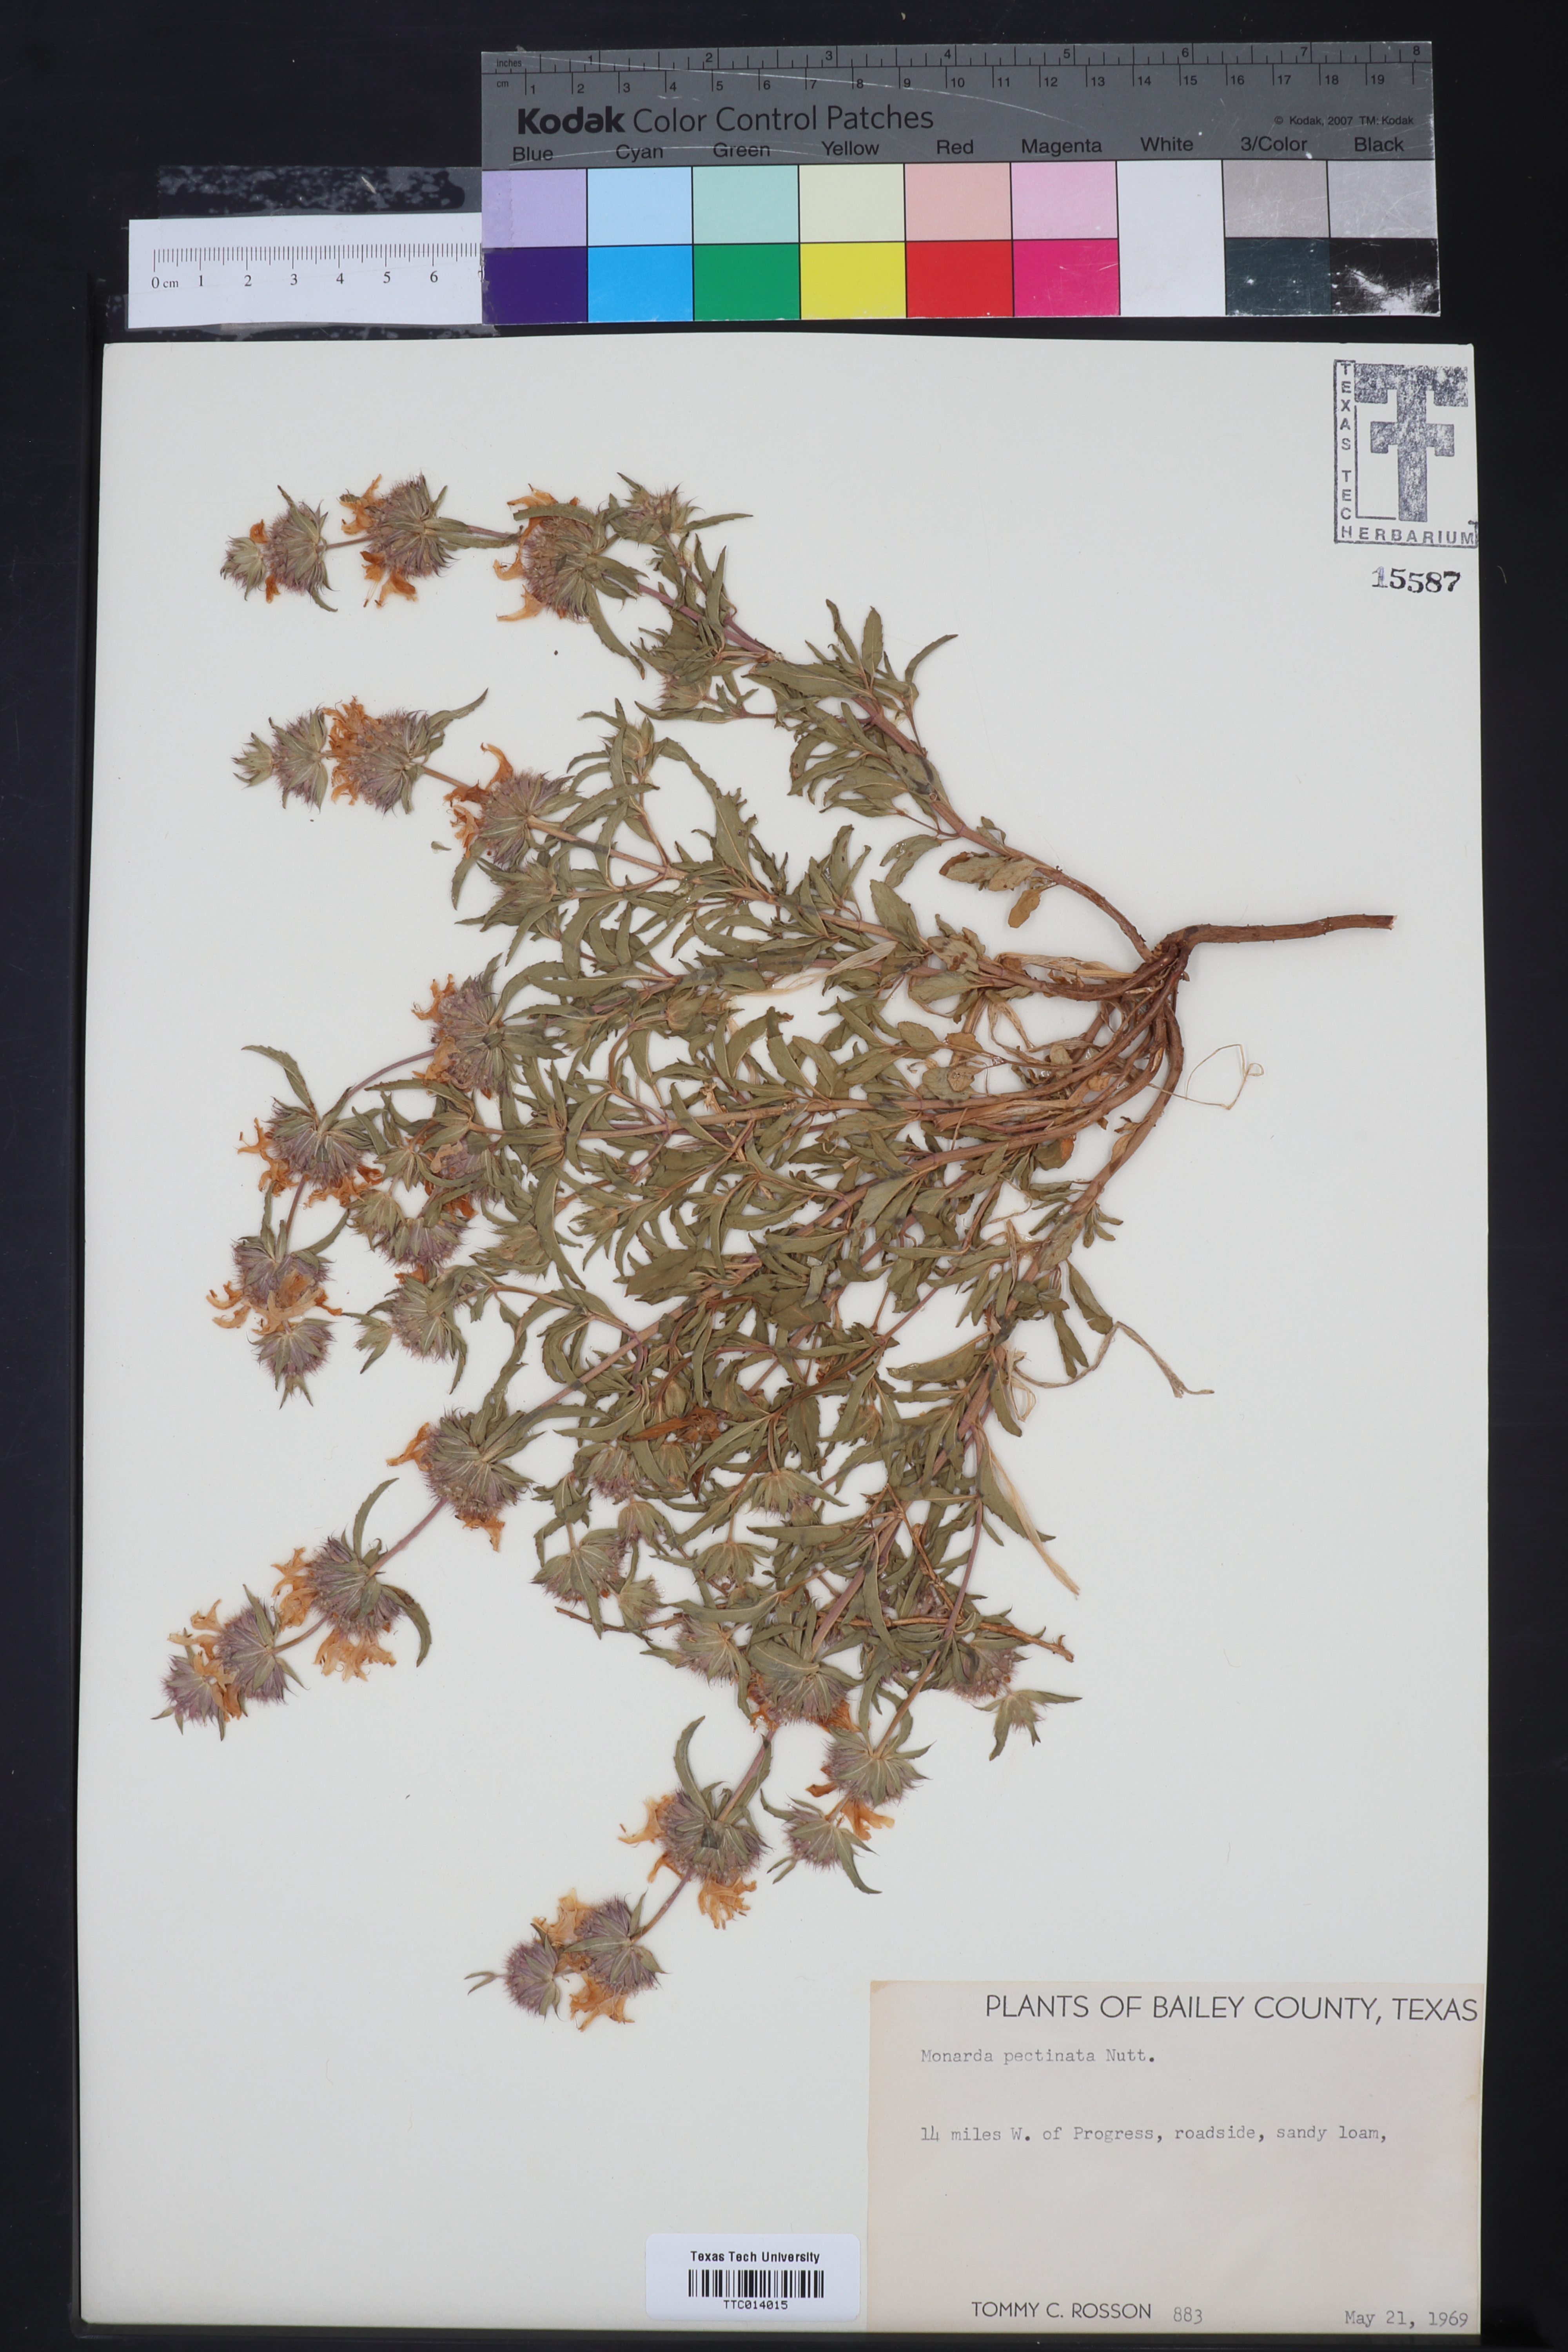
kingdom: Plantae
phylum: Tracheophyta
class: Magnoliopsida
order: Lamiales
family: Lamiaceae
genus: Monarda
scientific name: Monarda pectinata
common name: Plains beebalm
